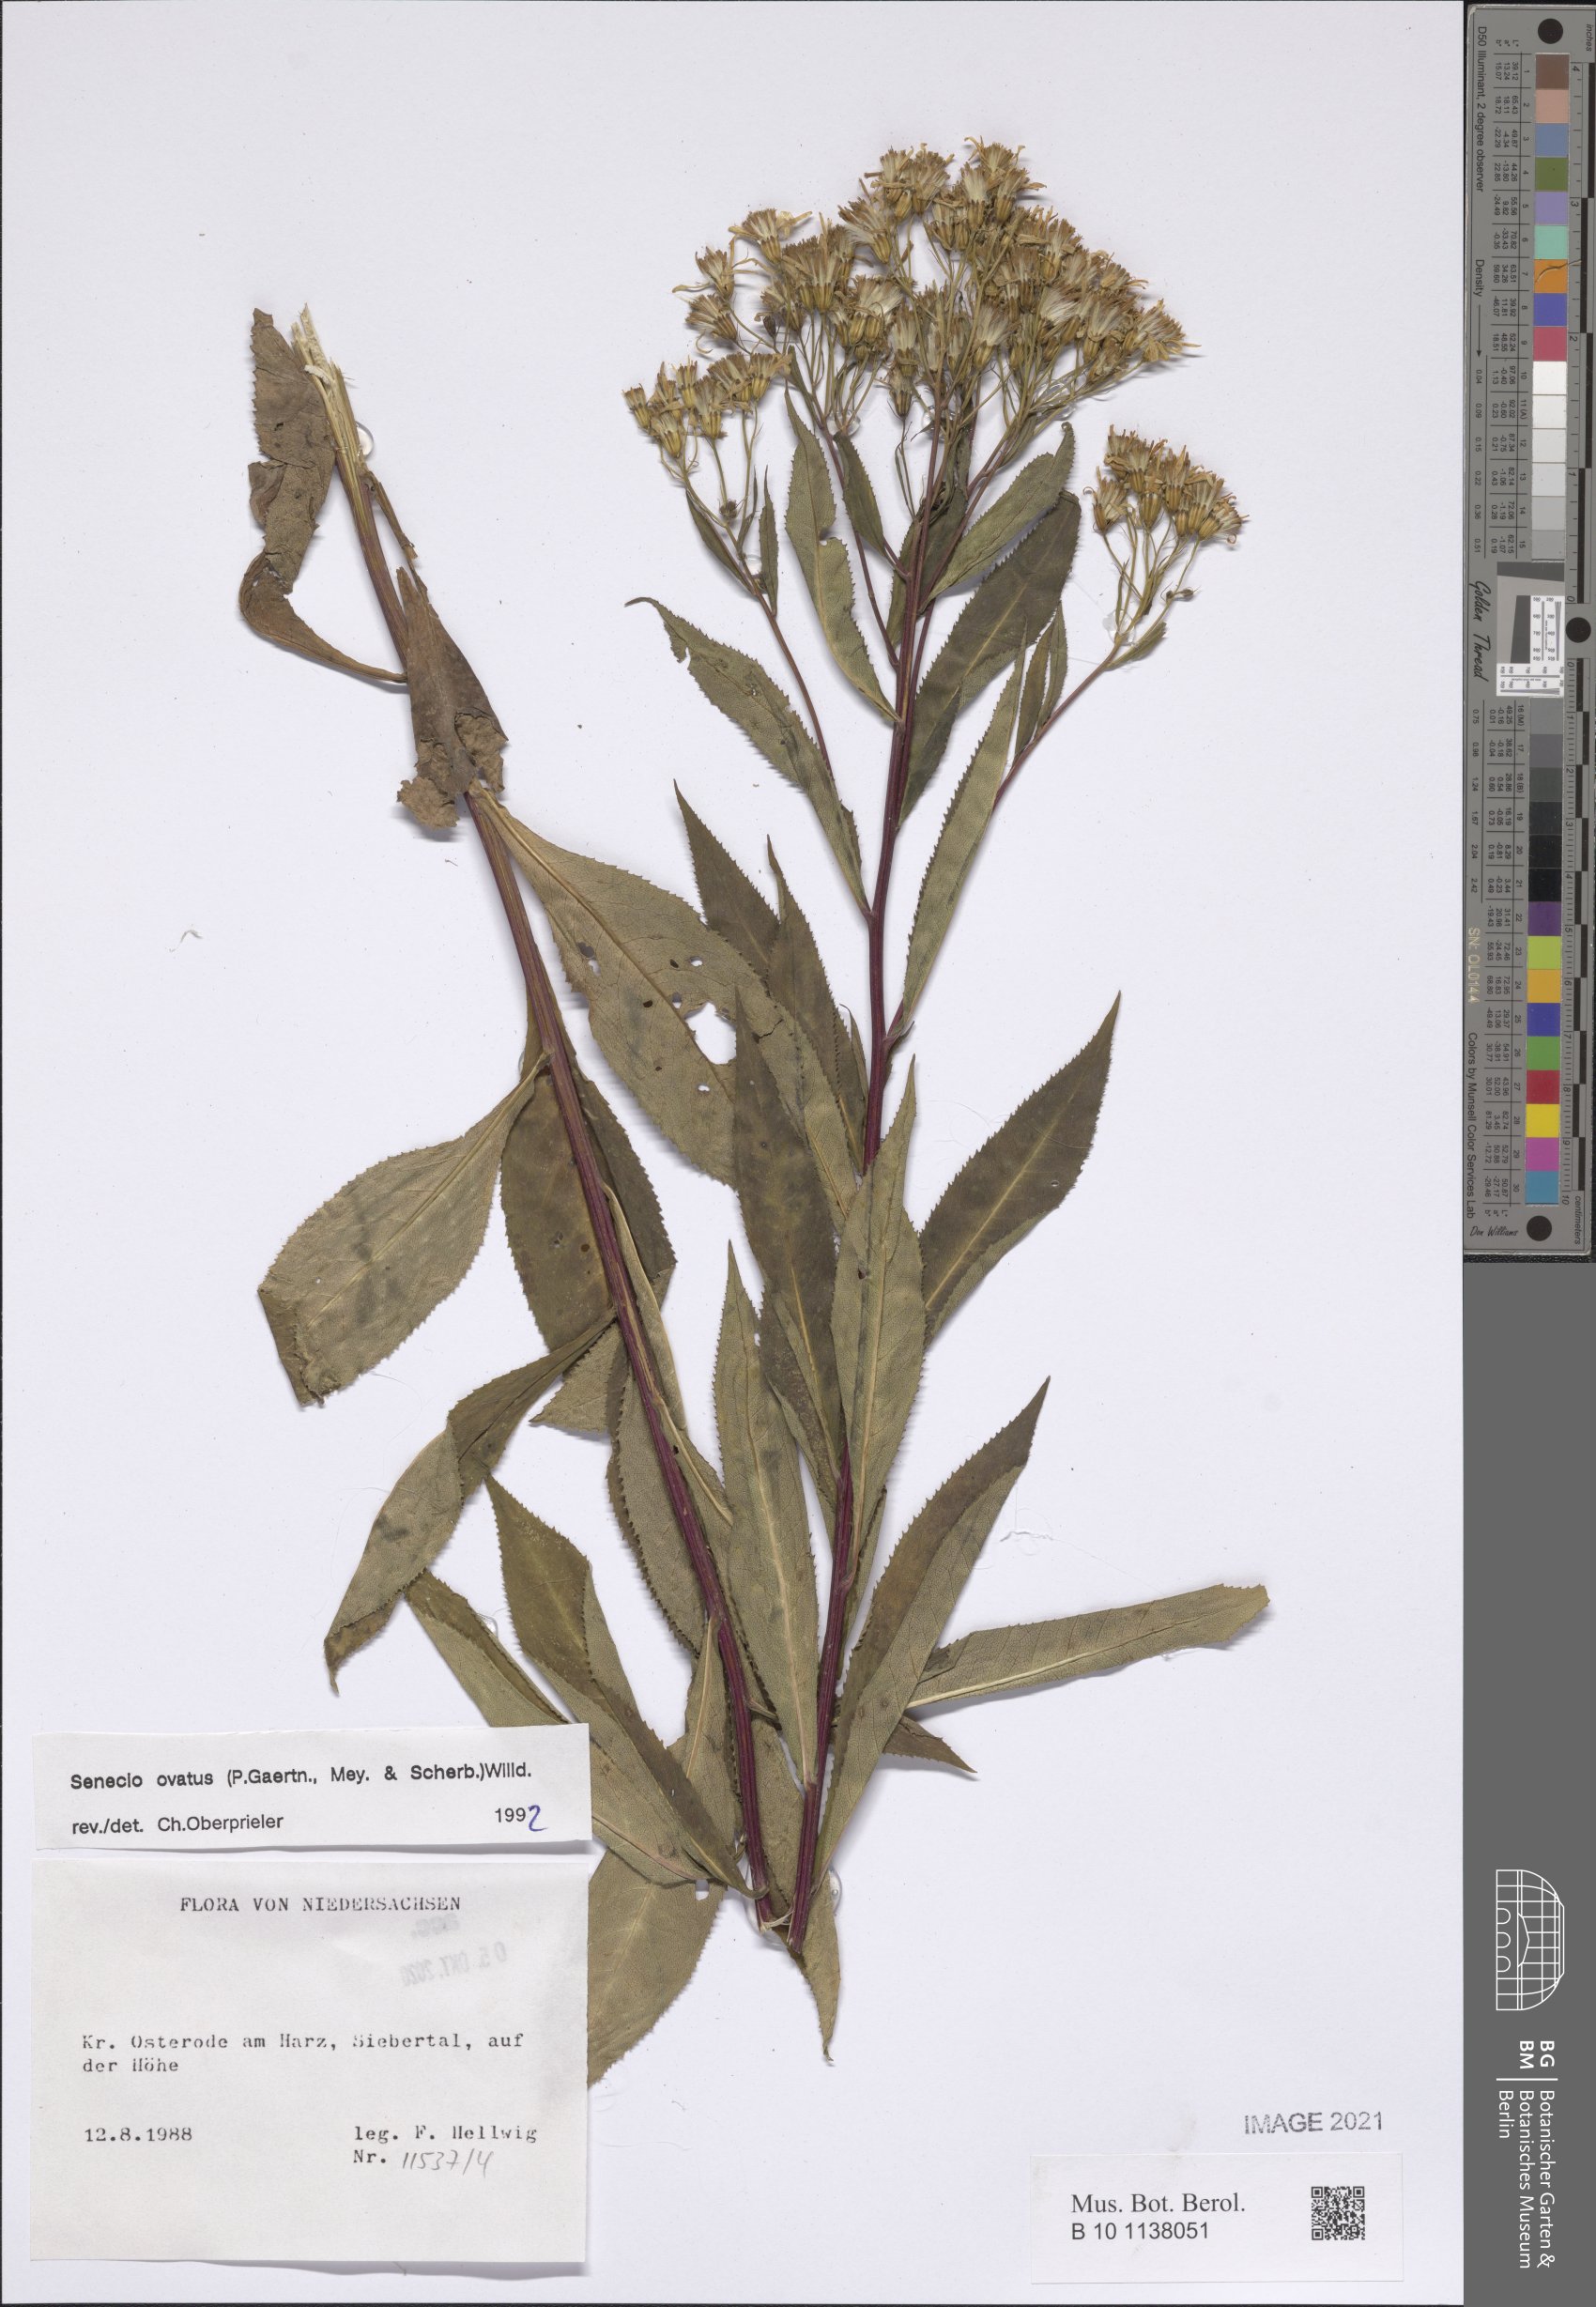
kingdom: Plantae
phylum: Tracheophyta
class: Magnoliopsida
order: Asterales
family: Asteraceae
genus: Senecio
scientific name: Senecio ovatus
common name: Wood ragwort
